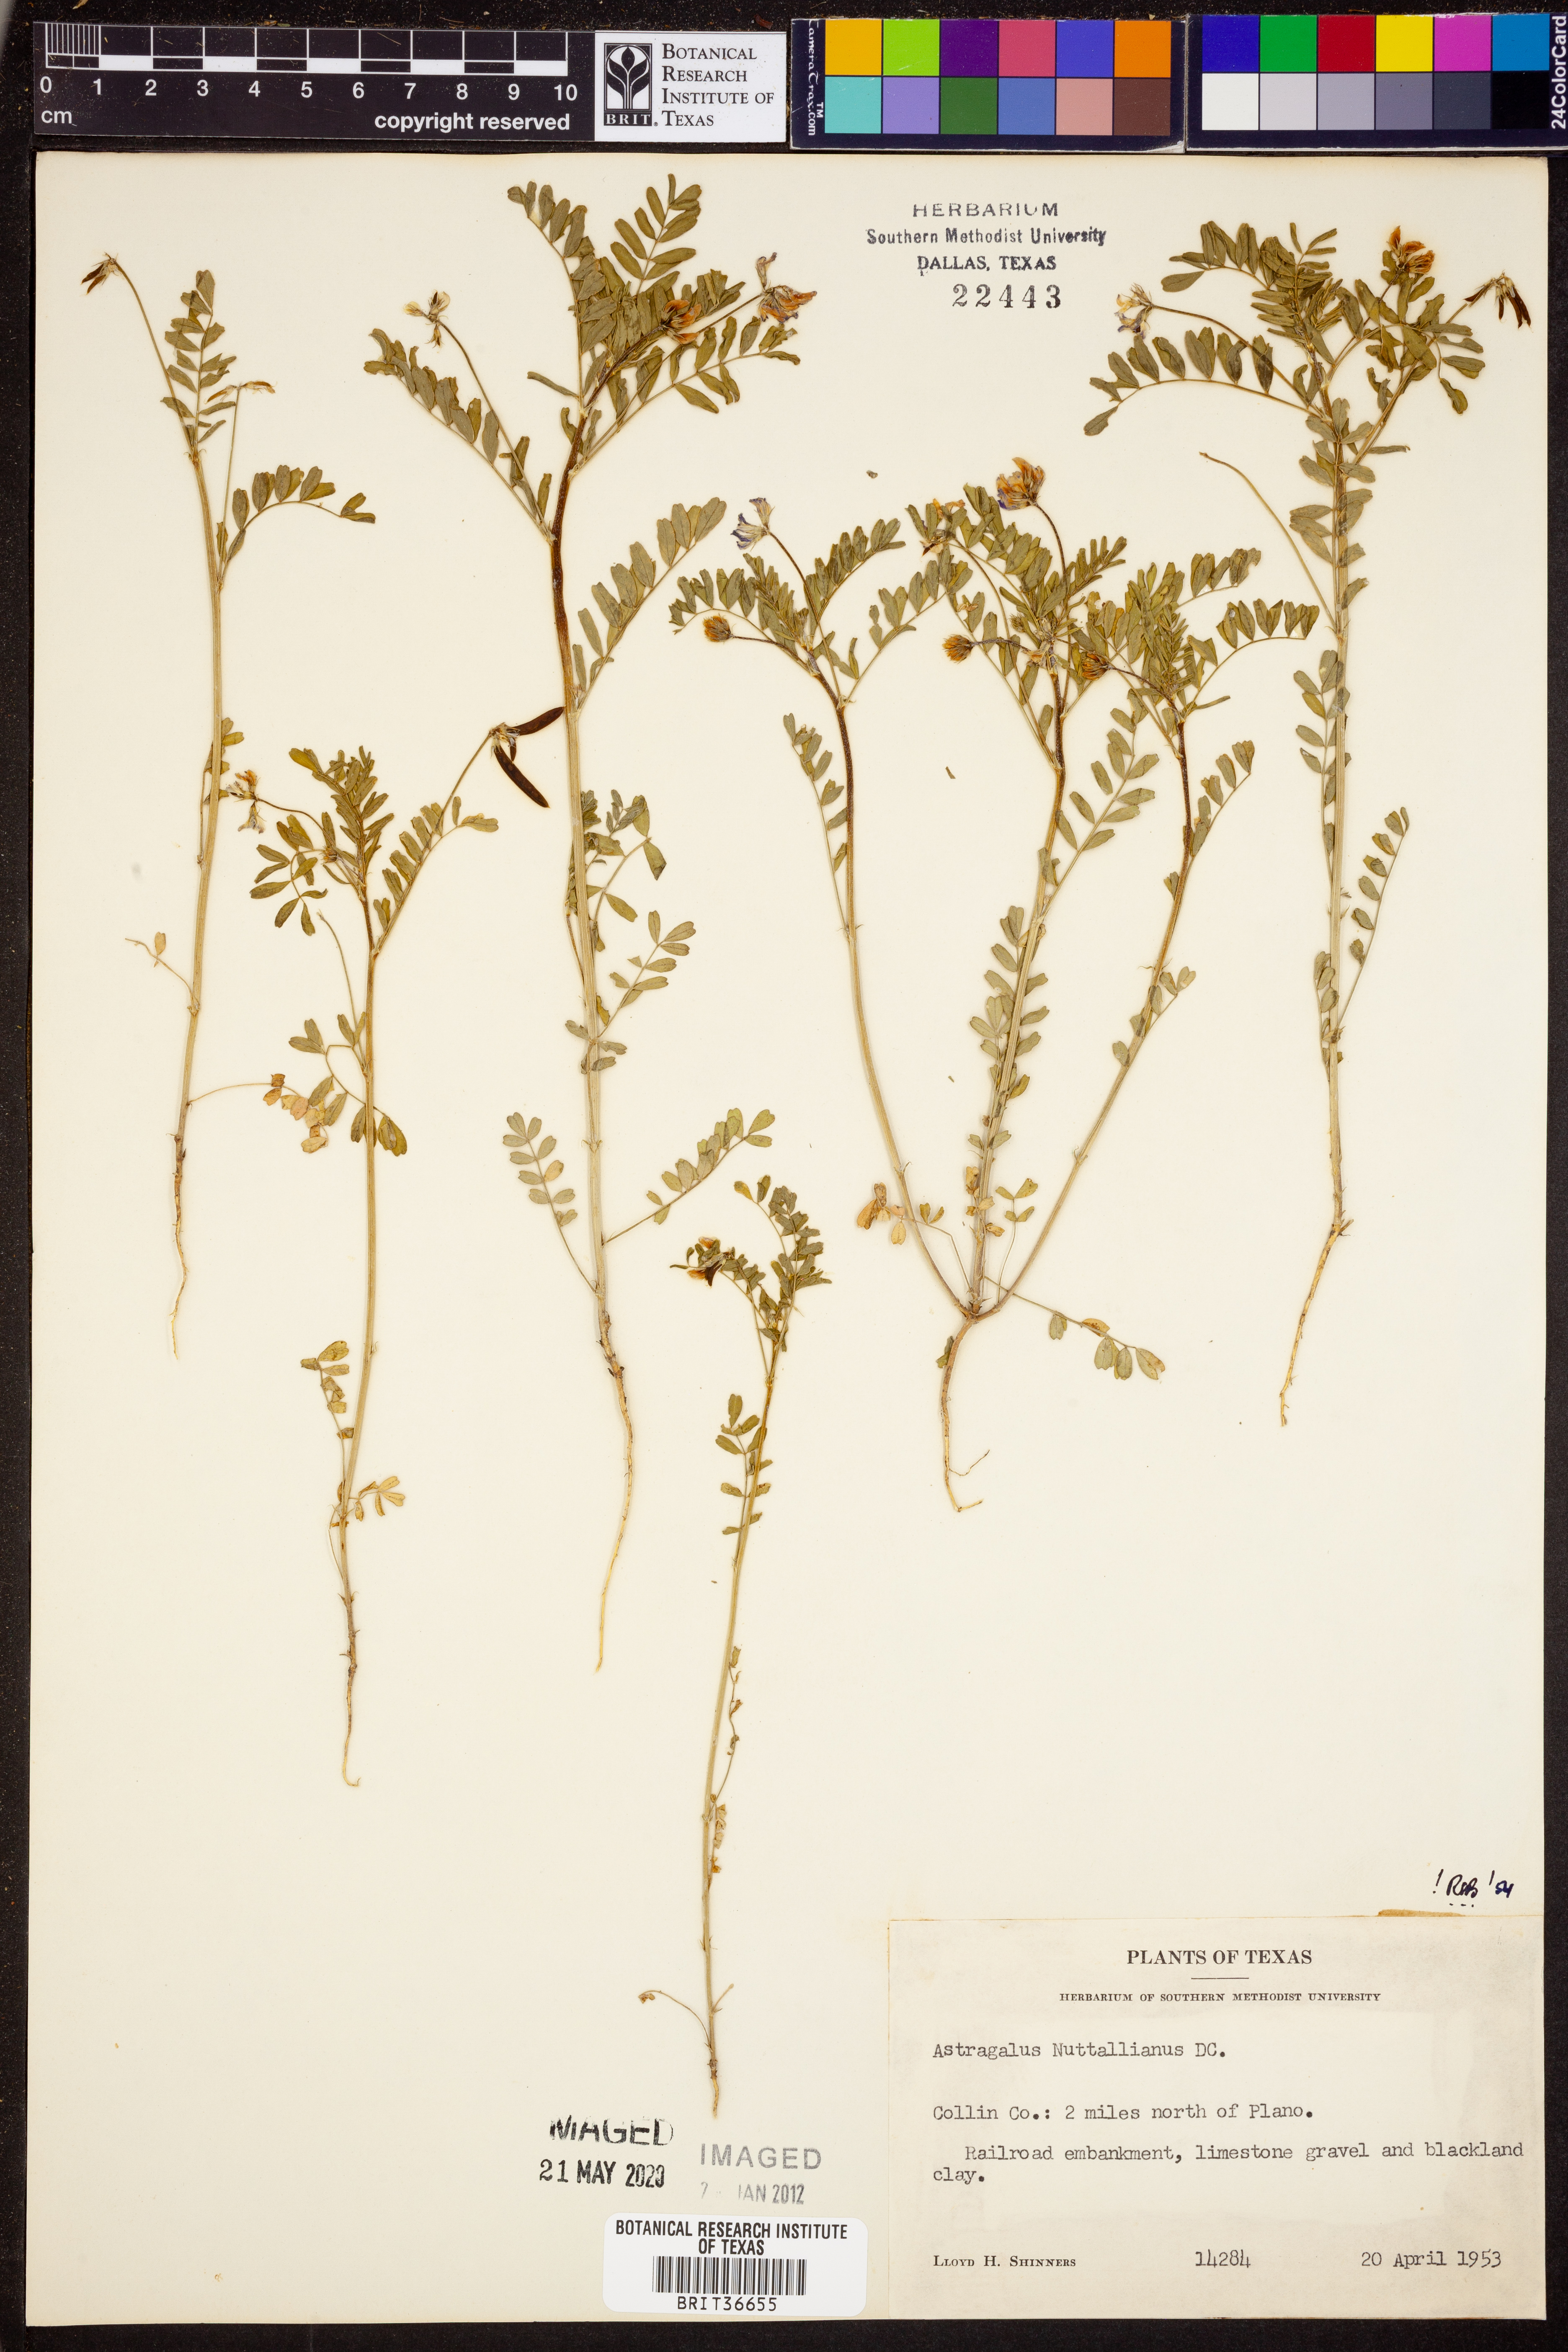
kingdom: Plantae
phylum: Tracheophyta
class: Magnoliopsida
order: Fabales
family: Fabaceae
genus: Astragalus
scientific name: Astragalus nuttallianus
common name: Smallflowered milkvetch
